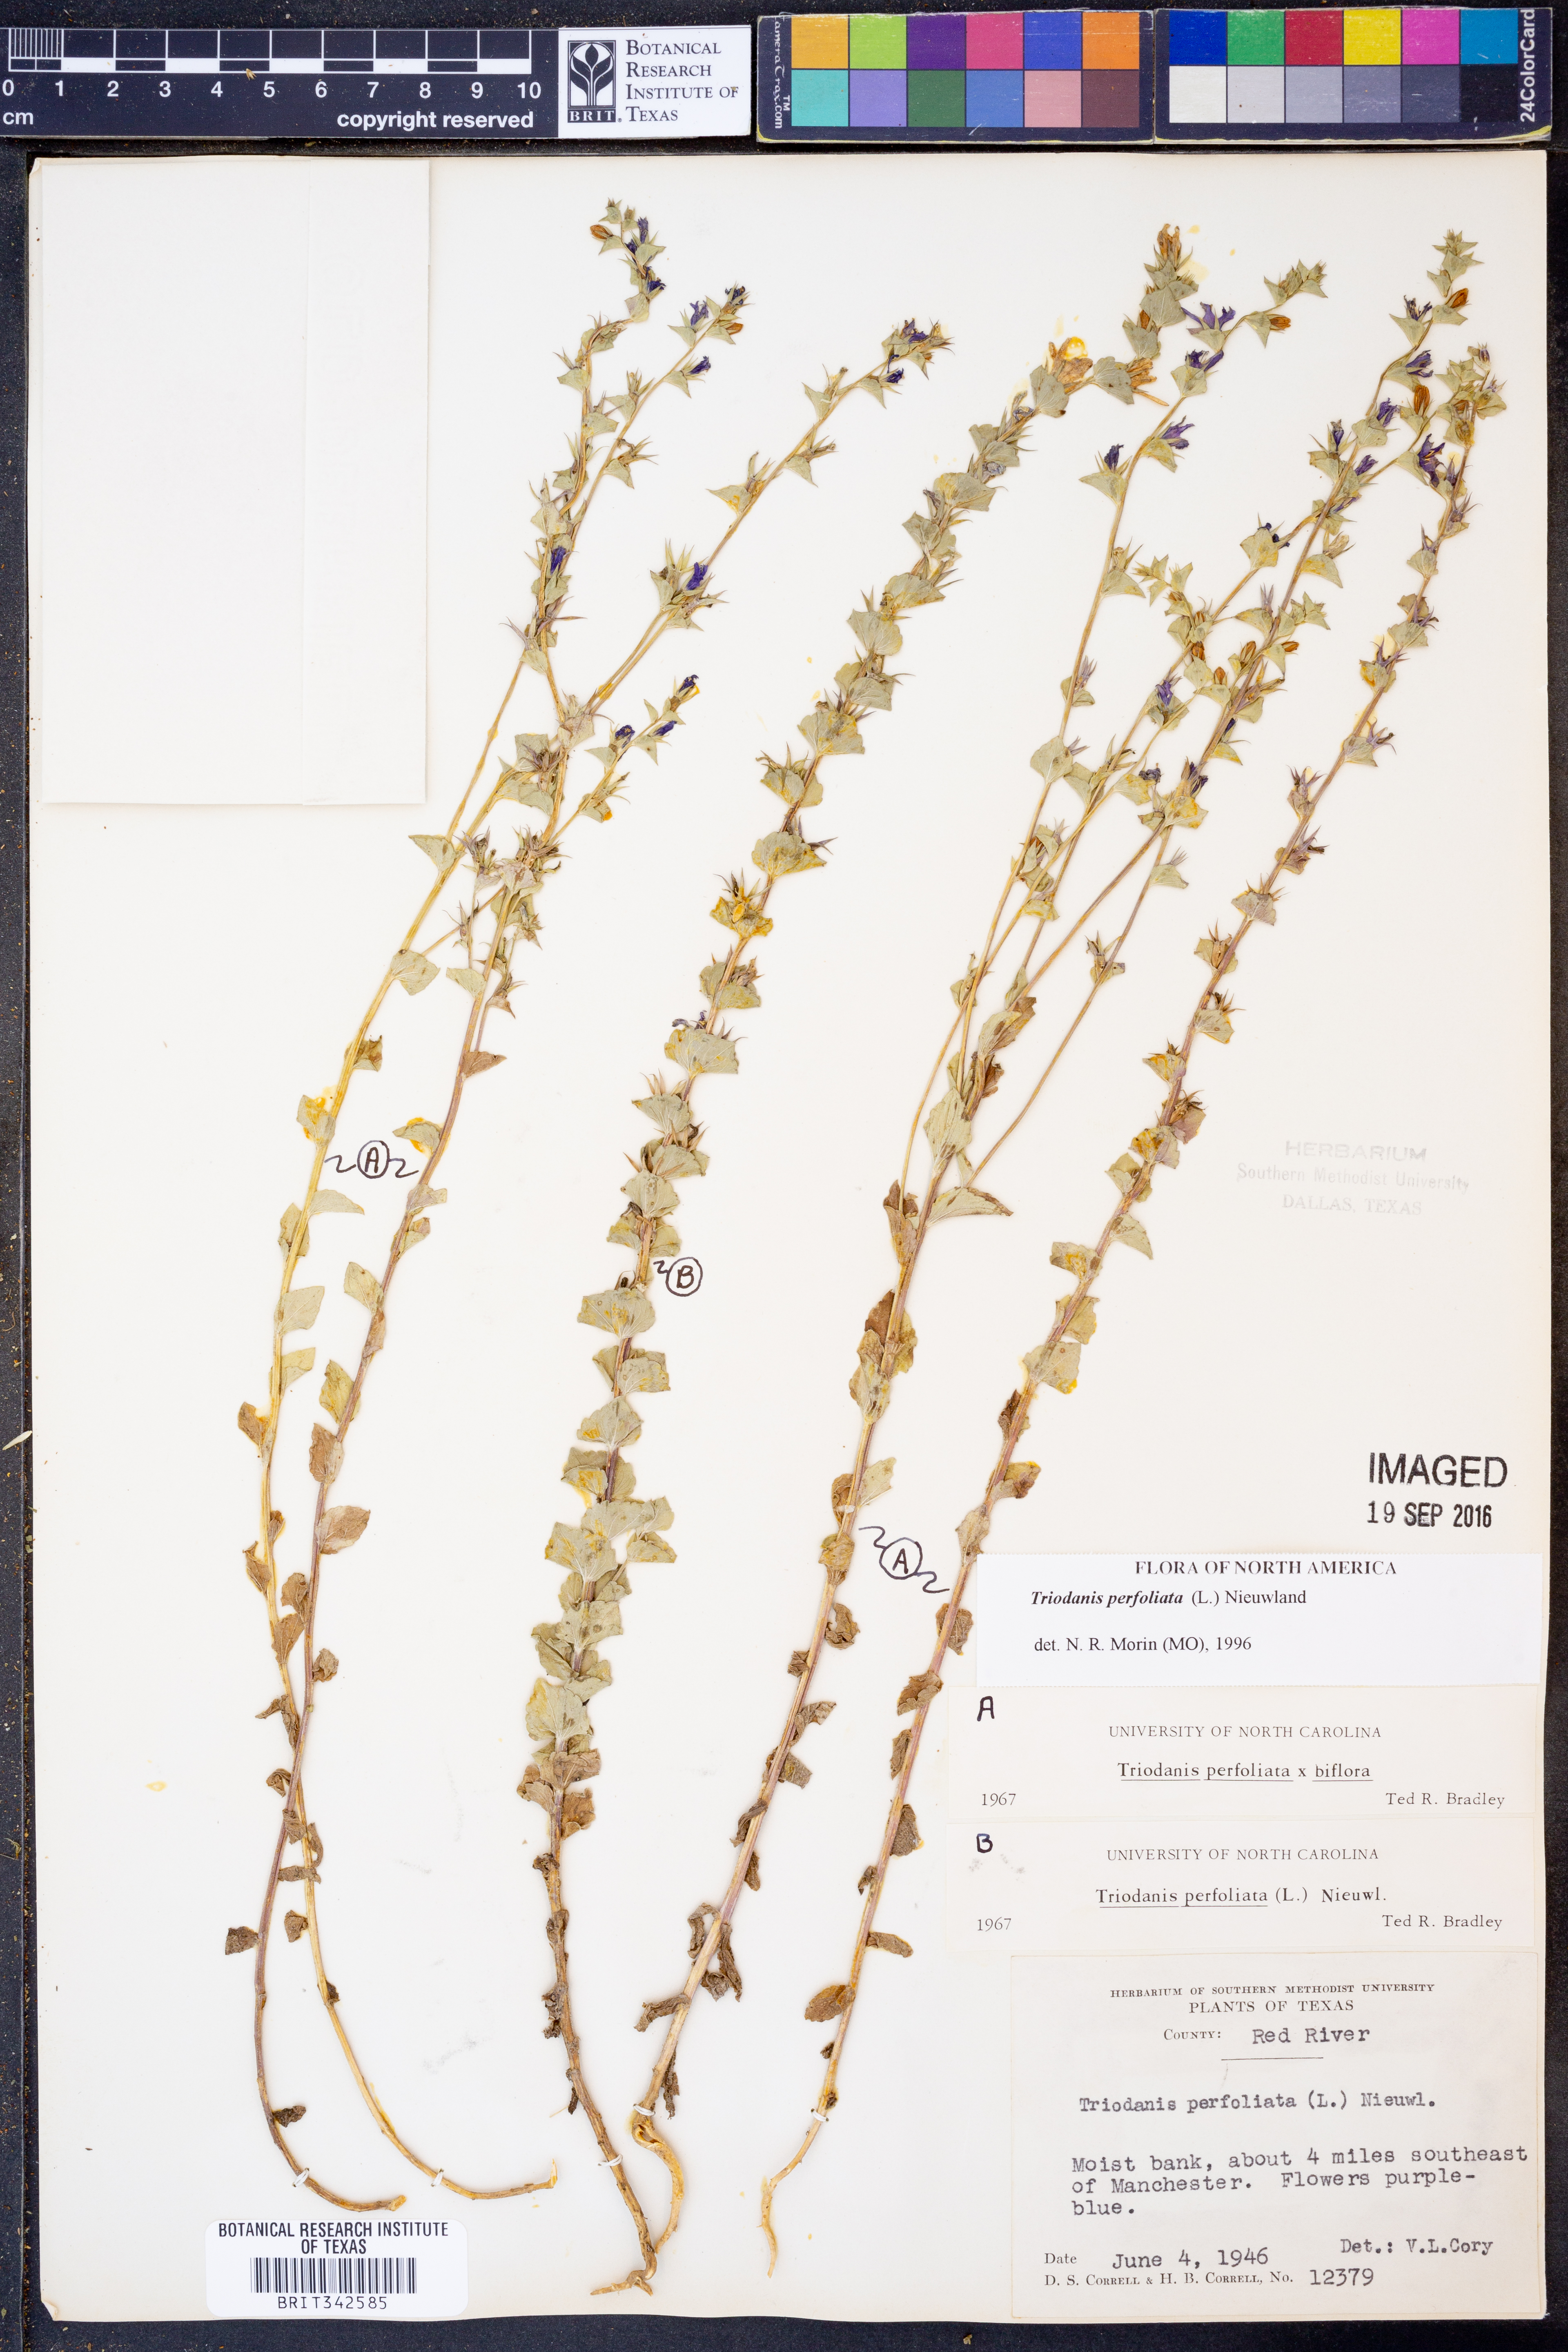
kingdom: Plantae
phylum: Tracheophyta
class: Magnoliopsida
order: Asterales
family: Campanulaceae
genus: Triodanis
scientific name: Triodanis perfoliata
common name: Clasping venus' looking-glass
